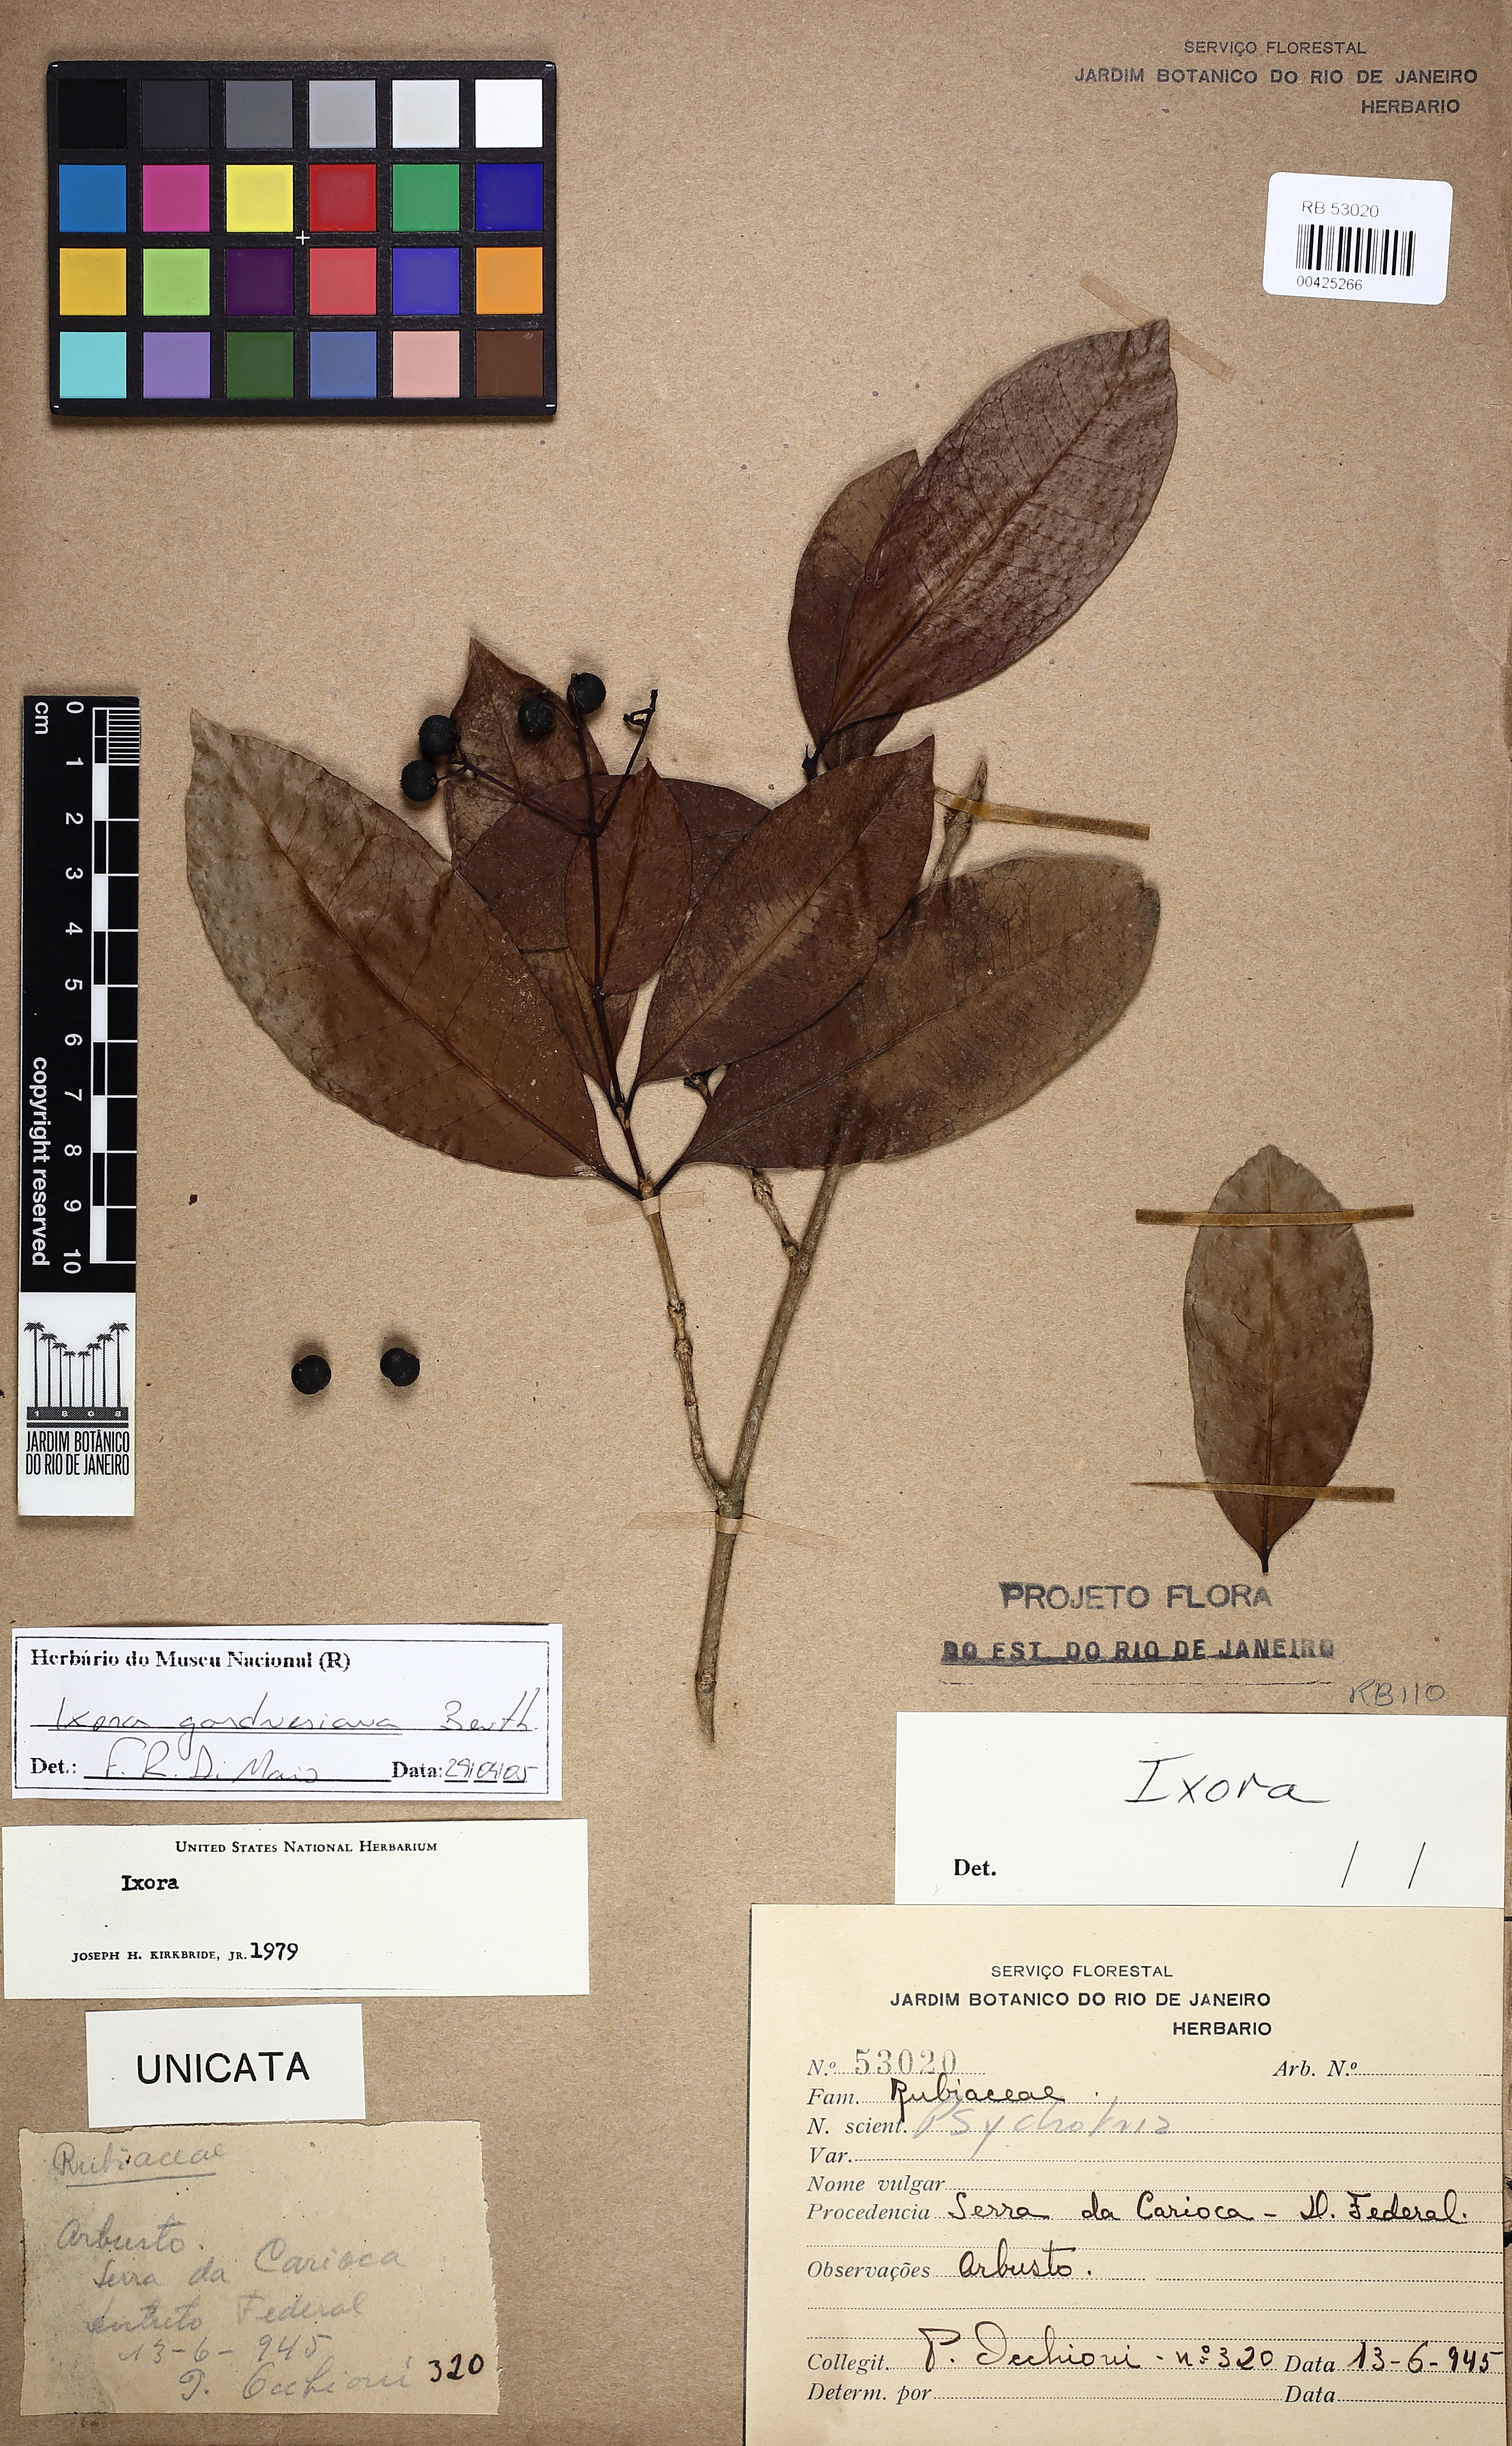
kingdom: Plantae
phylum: Tracheophyta
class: Magnoliopsida
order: Gentianales
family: Rubiaceae
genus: Ixora
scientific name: Ixora gardneriana
